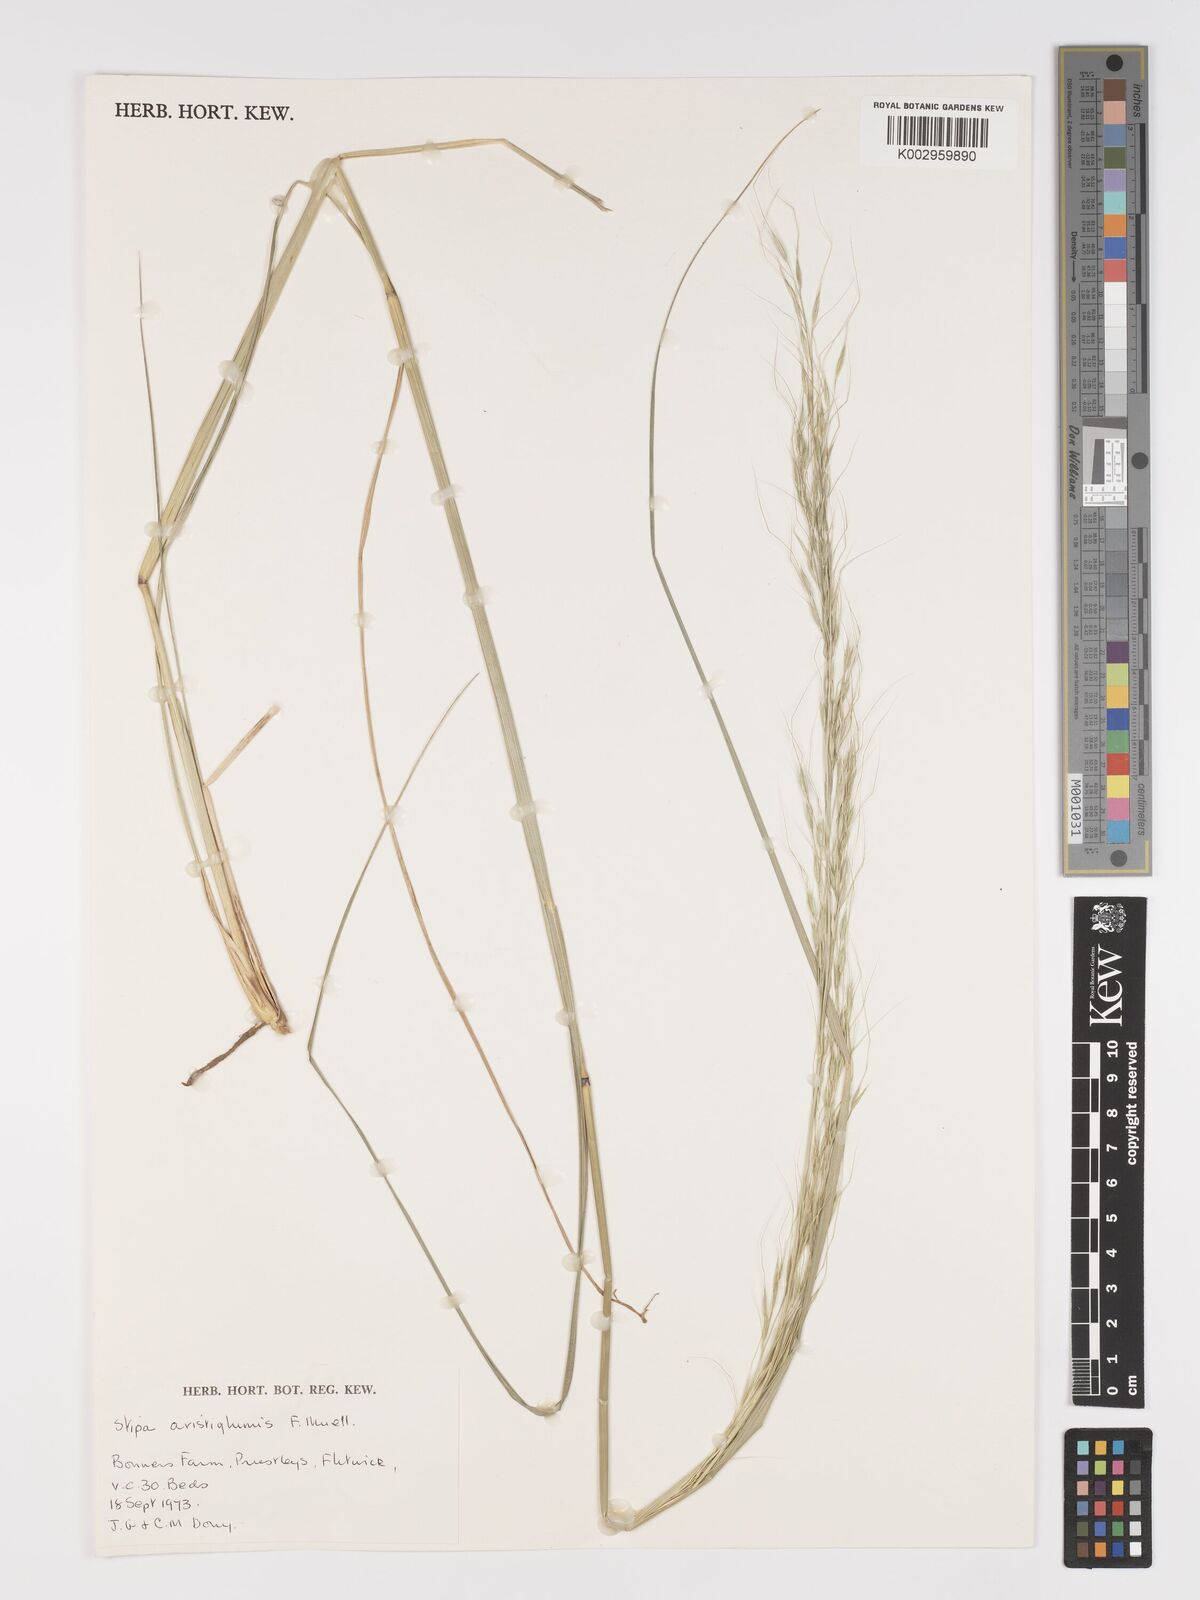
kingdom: Plantae
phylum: Tracheophyta
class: Liliopsida
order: Poales
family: Poaceae
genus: Austrostipa
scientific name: Austrostipa aristiglumis
